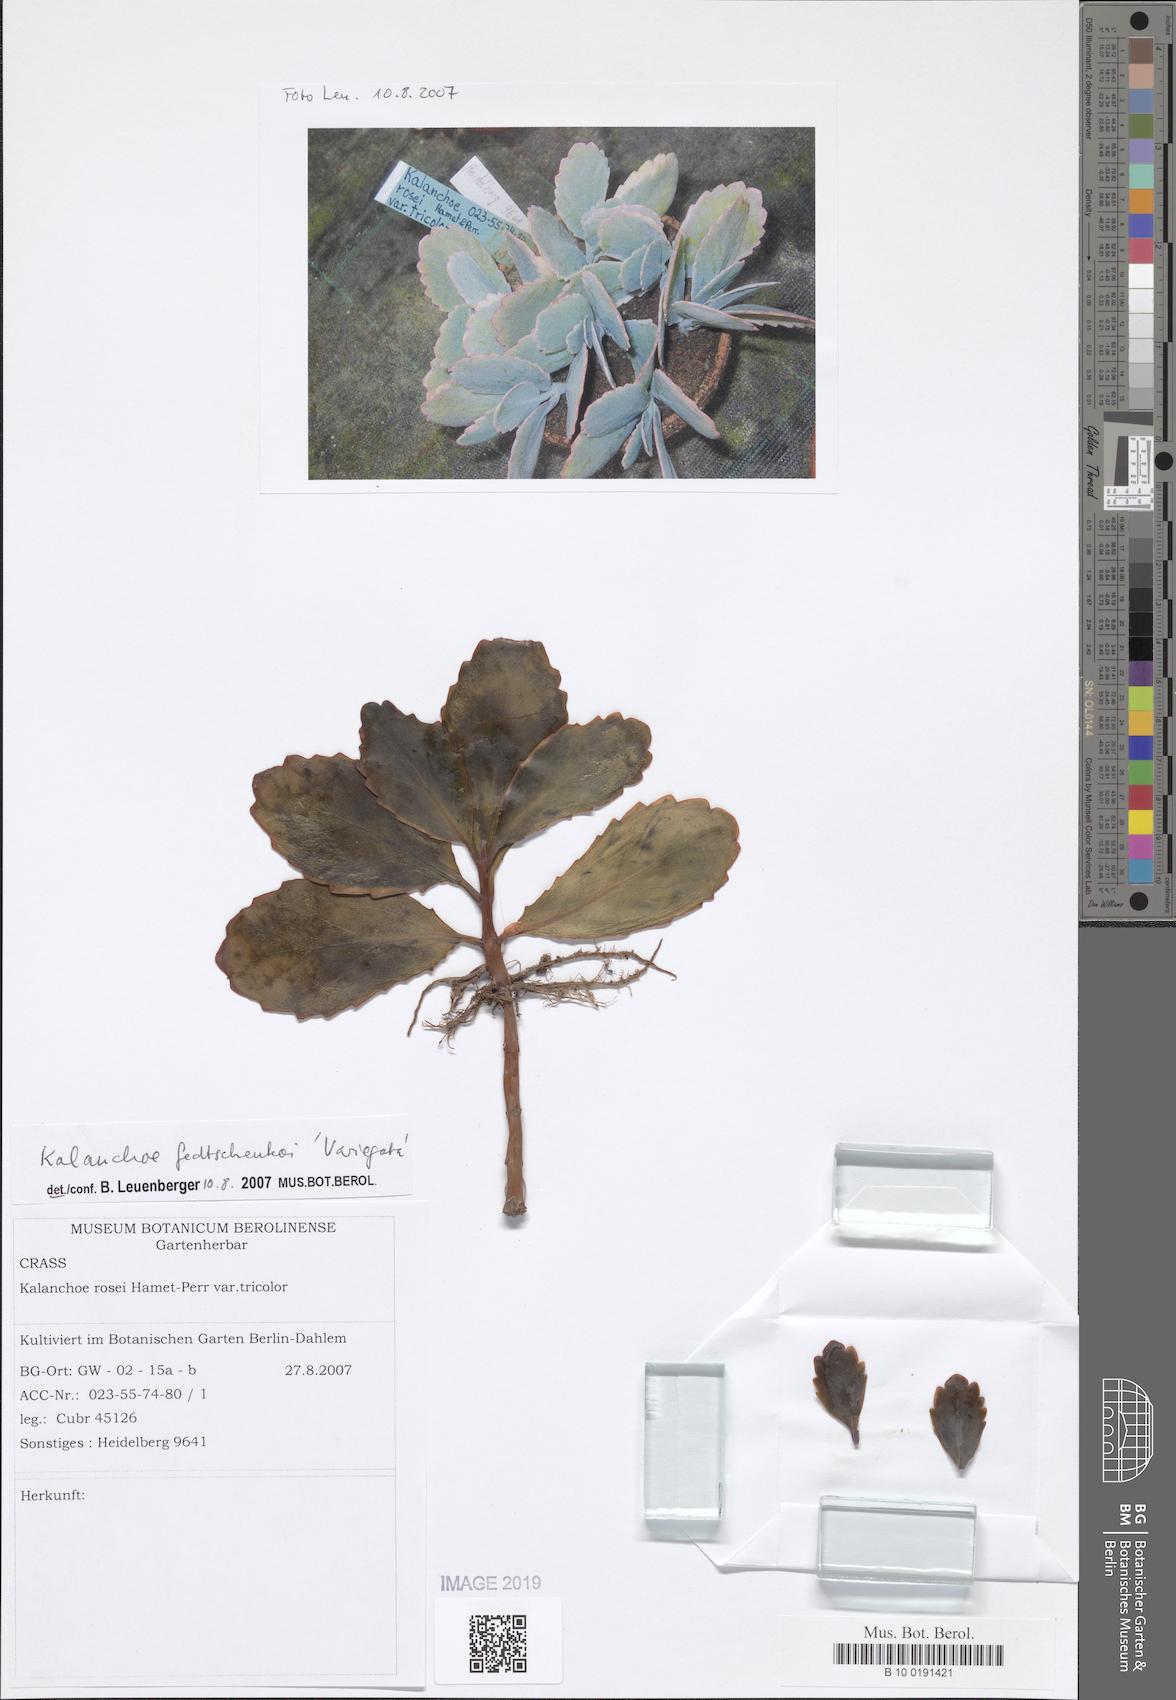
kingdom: Plantae
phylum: Tracheophyta
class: Magnoliopsida
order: Saxifragales
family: Crassulaceae
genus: Kalanchoe
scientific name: Kalanchoe fedtschenkoi
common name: Lavender scallops
